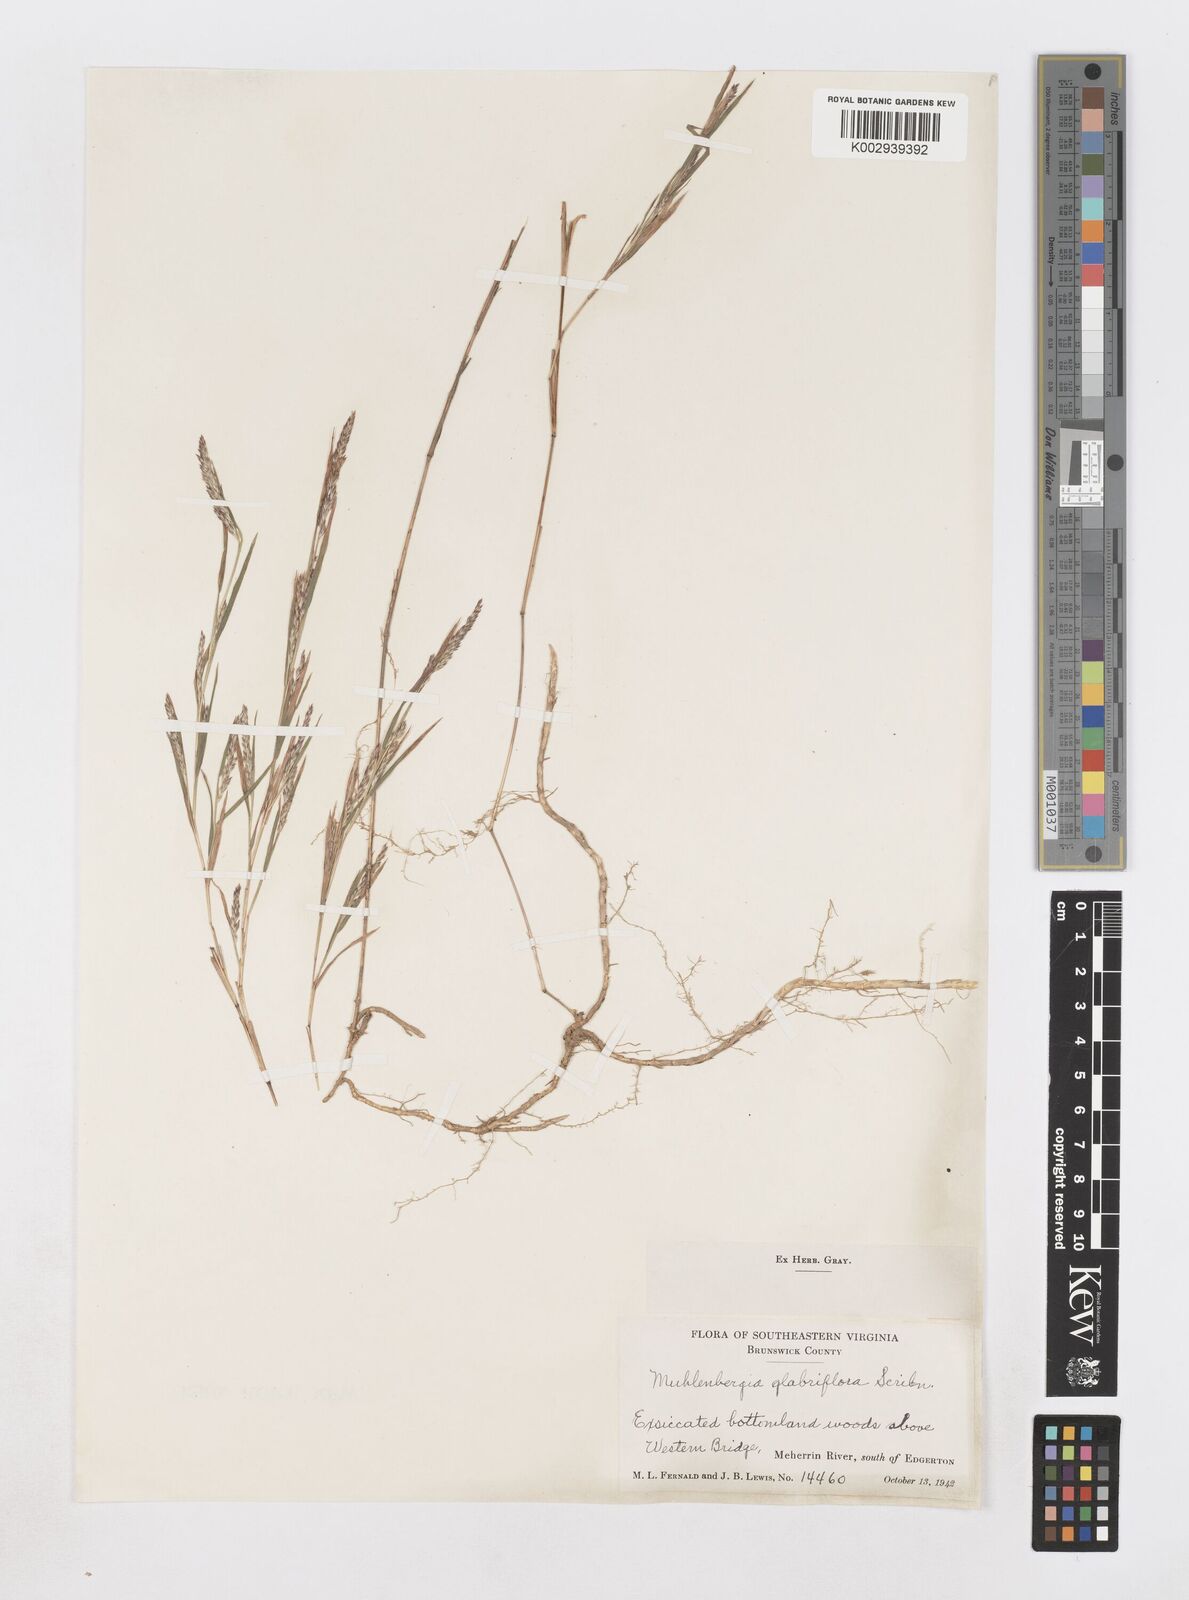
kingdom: Plantae
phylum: Tracheophyta
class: Liliopsida
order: Poales
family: Poaceae
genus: Muhlenbergia
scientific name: Muhlenbergia glabrifloris
